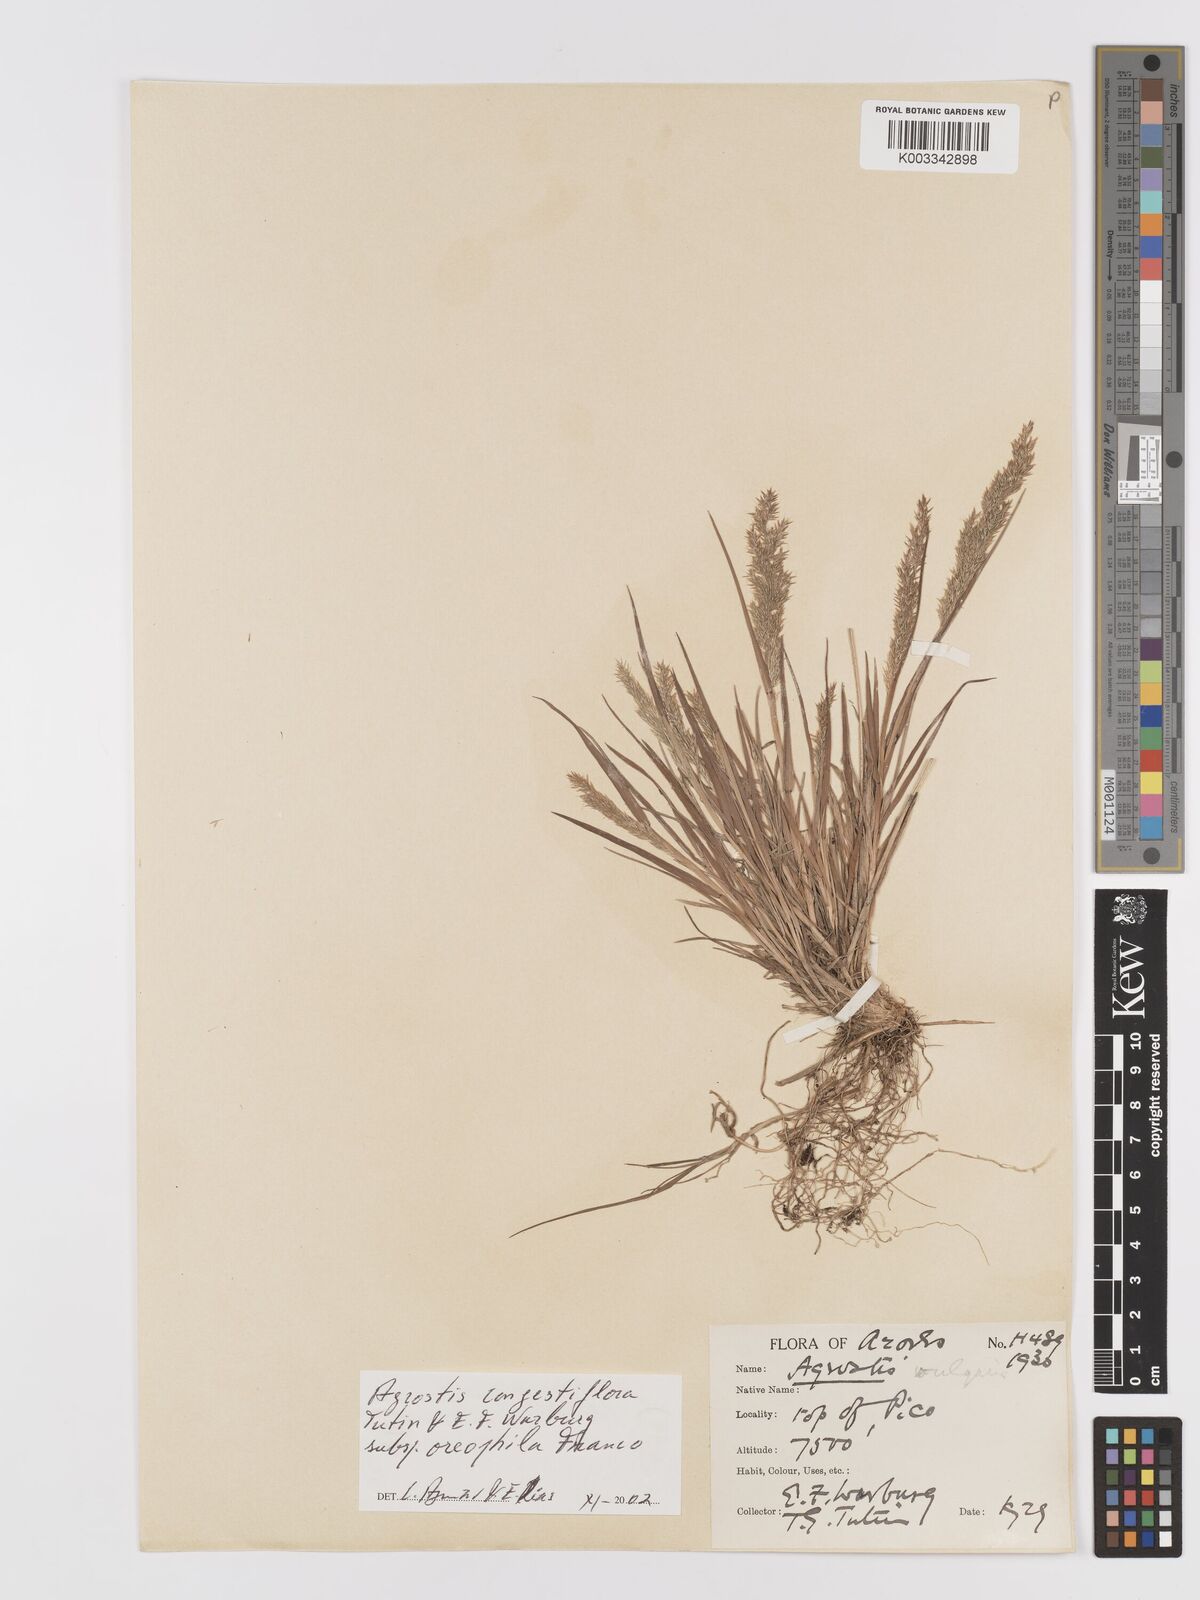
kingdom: Plantae
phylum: Tracheophyta
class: Liliopsida
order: Poales
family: Poaceae
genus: Agrostis
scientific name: Agrostis congestiflora
